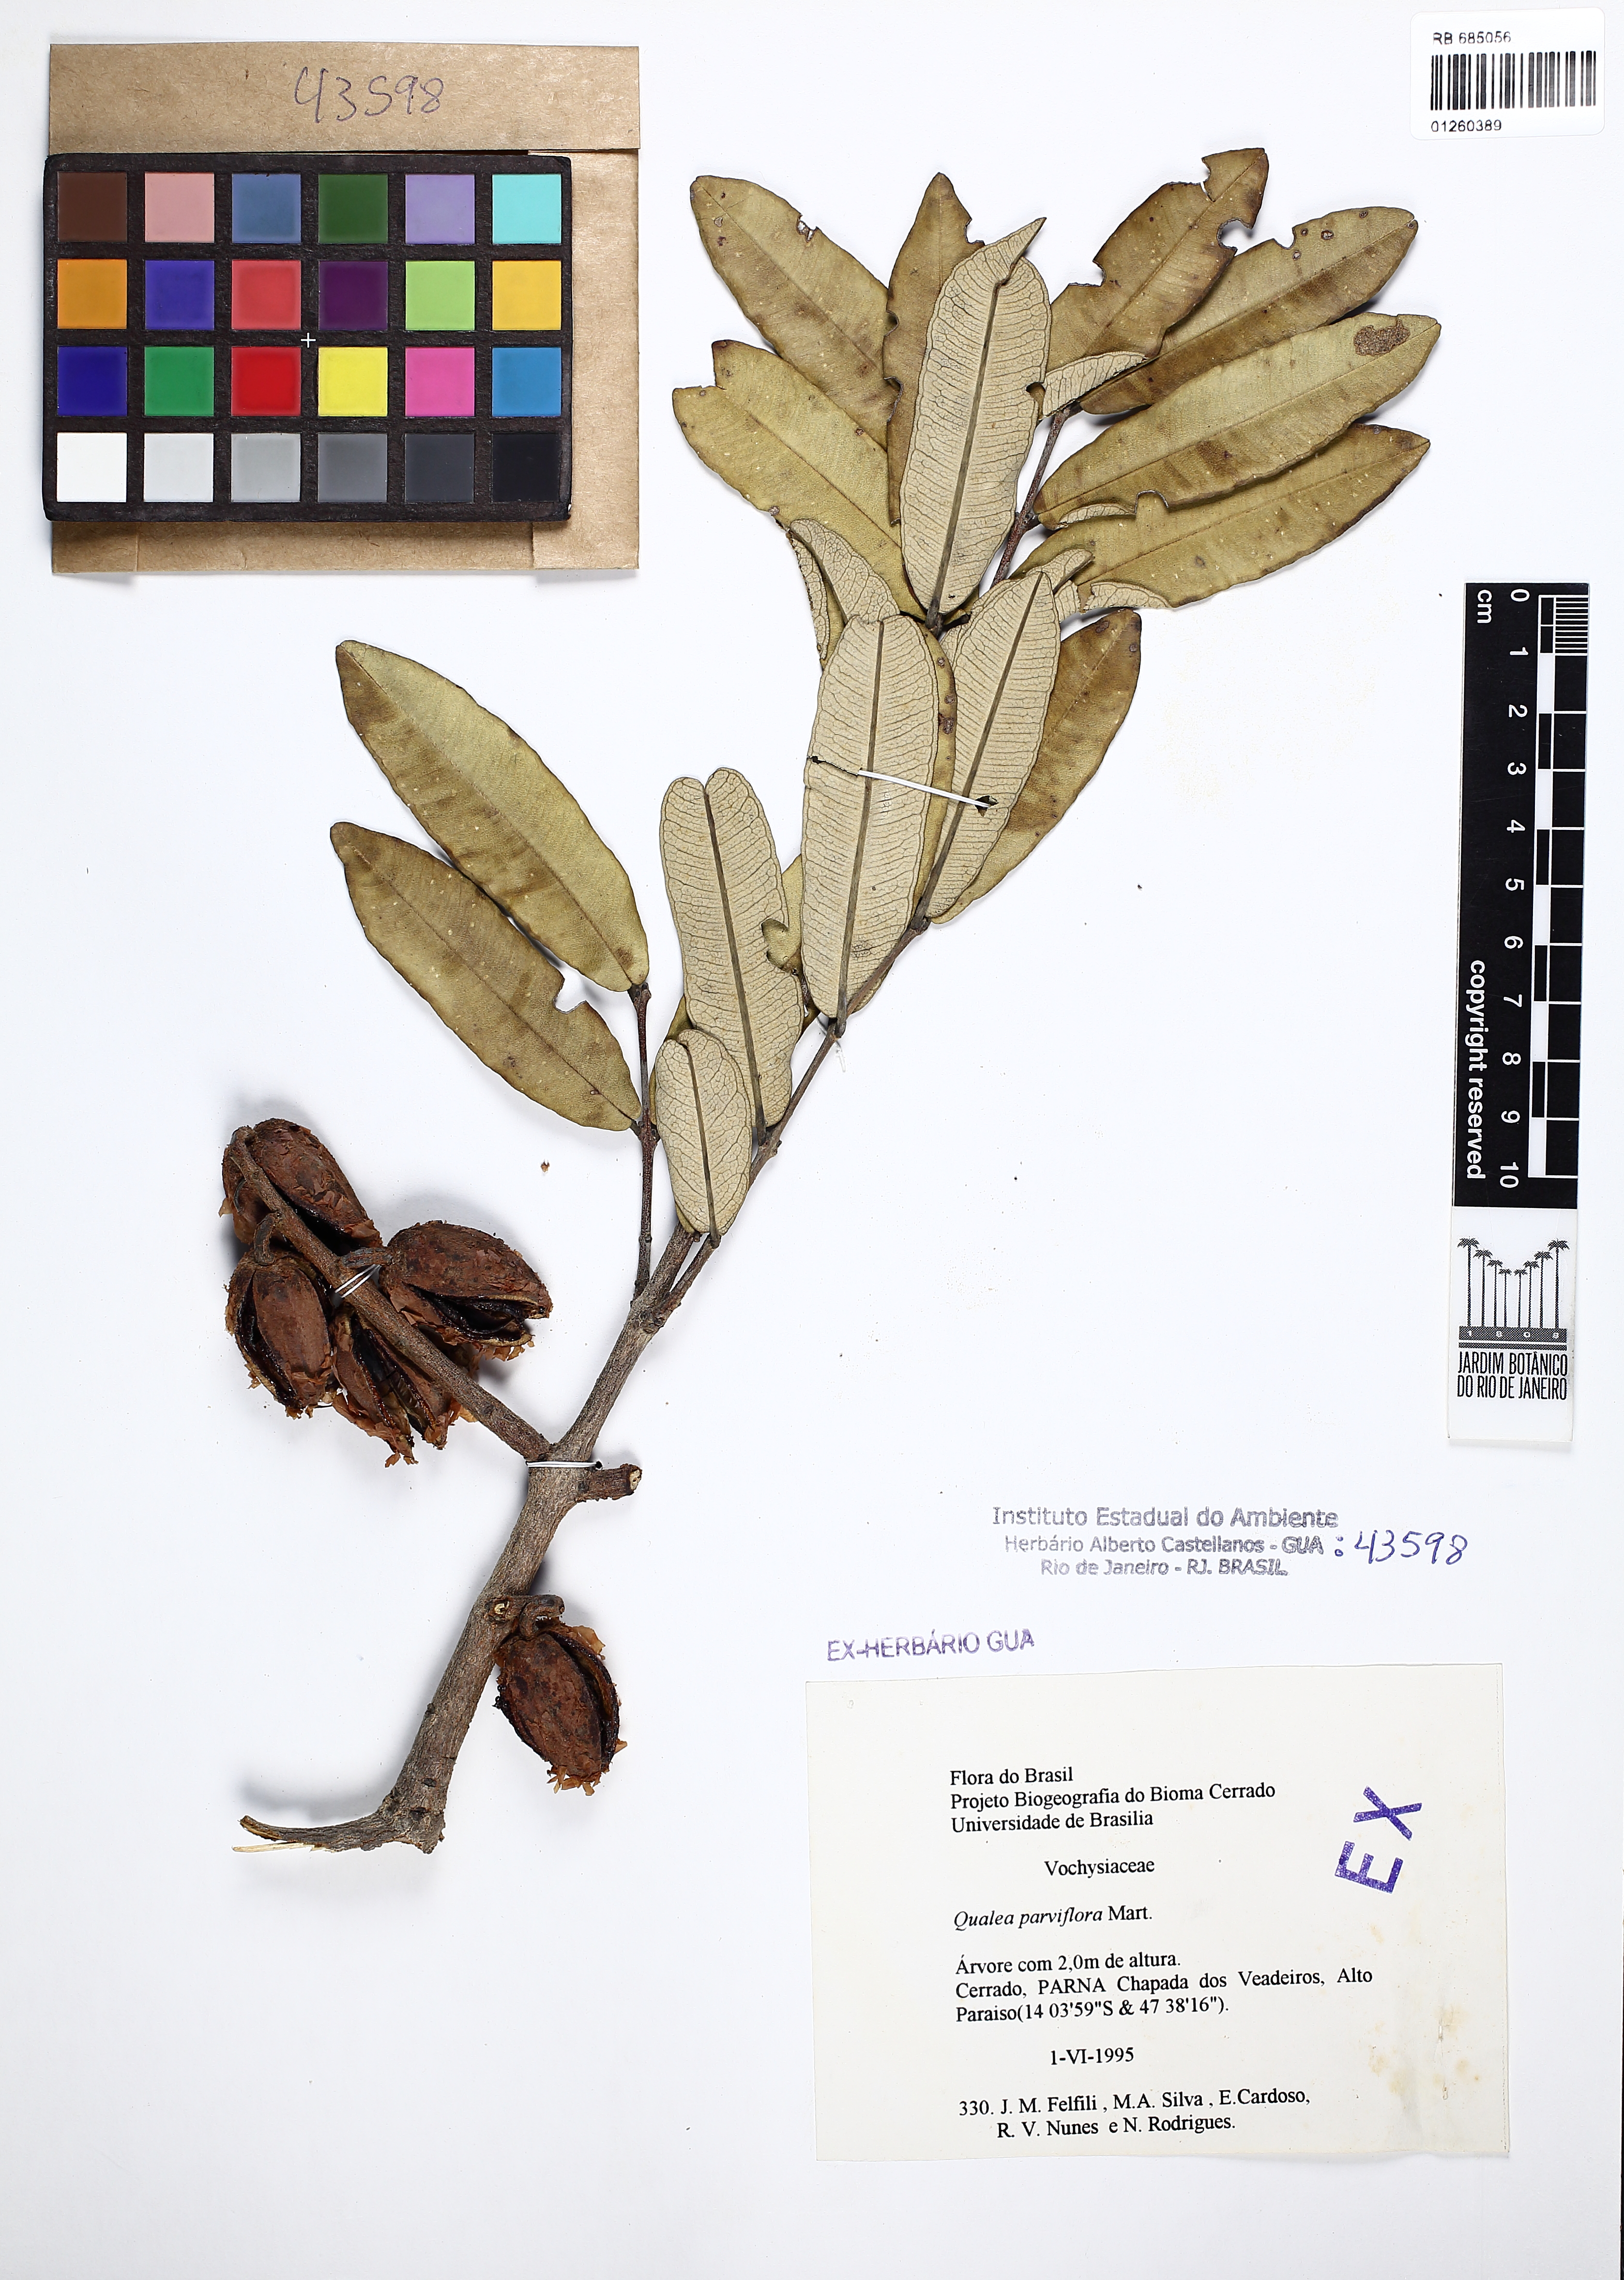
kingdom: Plantae
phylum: Tracheophyta
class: Magnoliopsida
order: Myrtales
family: Vochysiaceae
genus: Qualea
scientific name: Qualea parviflora
